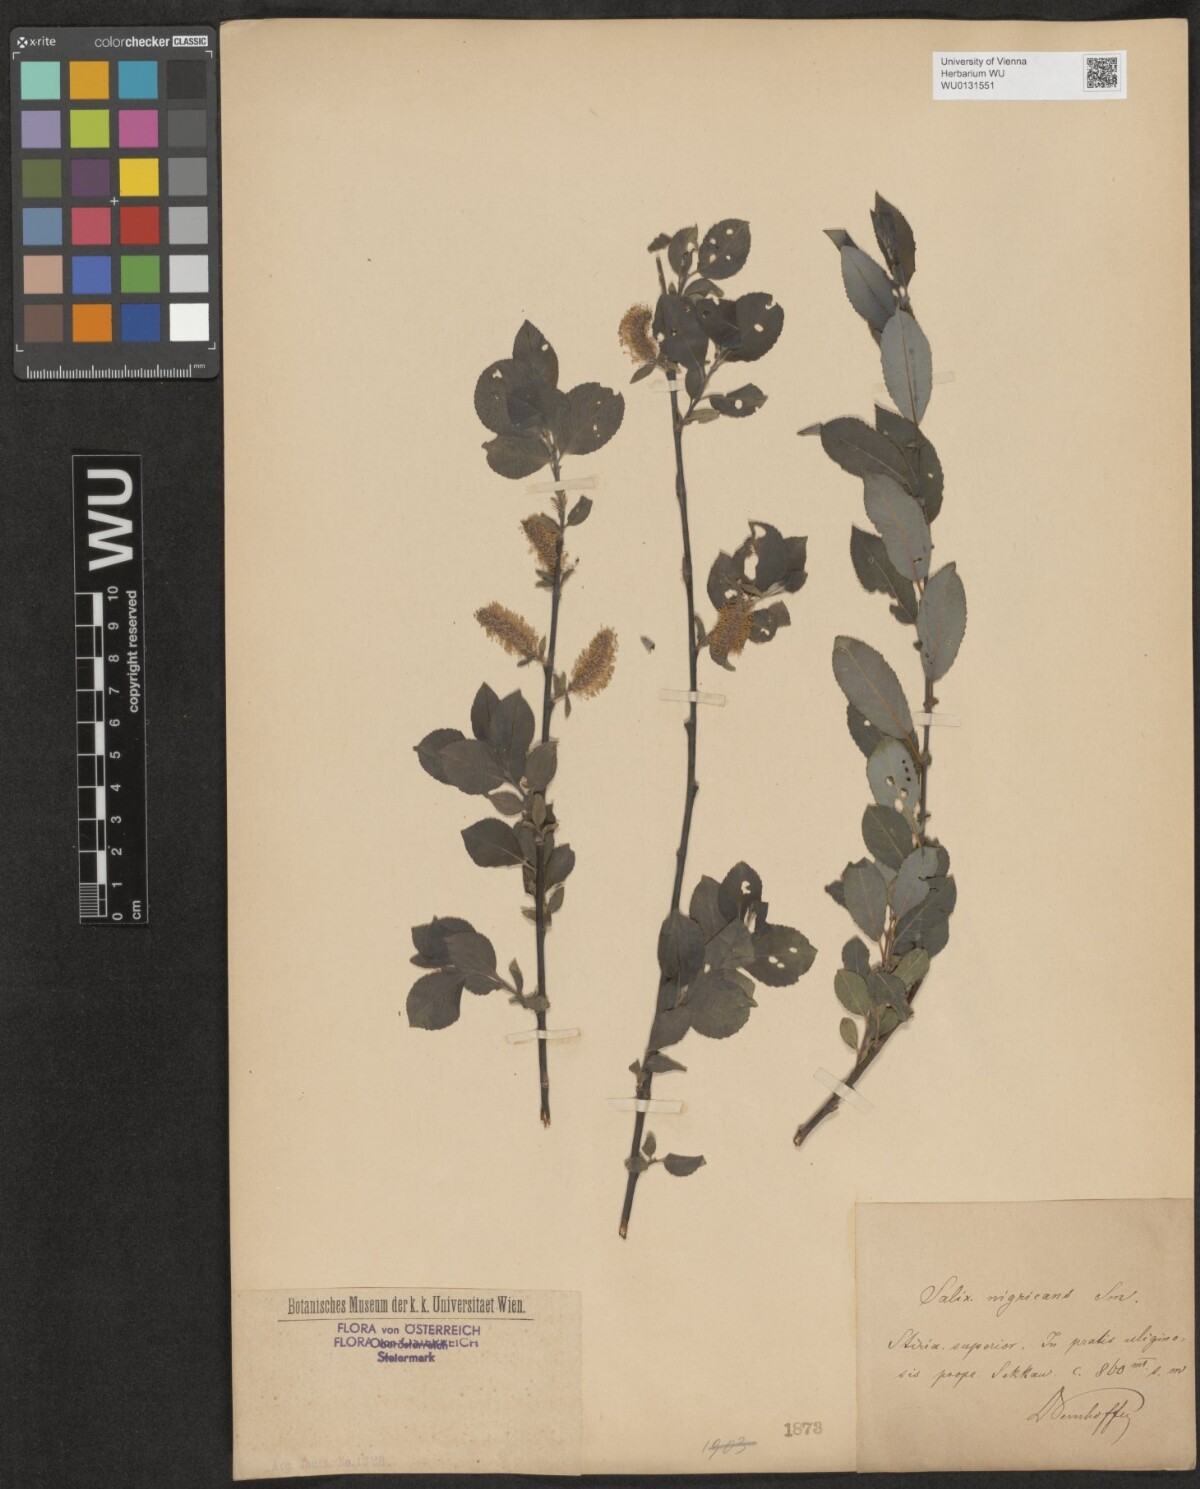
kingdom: Plantae
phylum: Tracheophyta
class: Magnoliopsida
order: Malpighiales
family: Salicaceae
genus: Salix
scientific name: Salix myrsinifolia
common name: Dark-leaved willow
